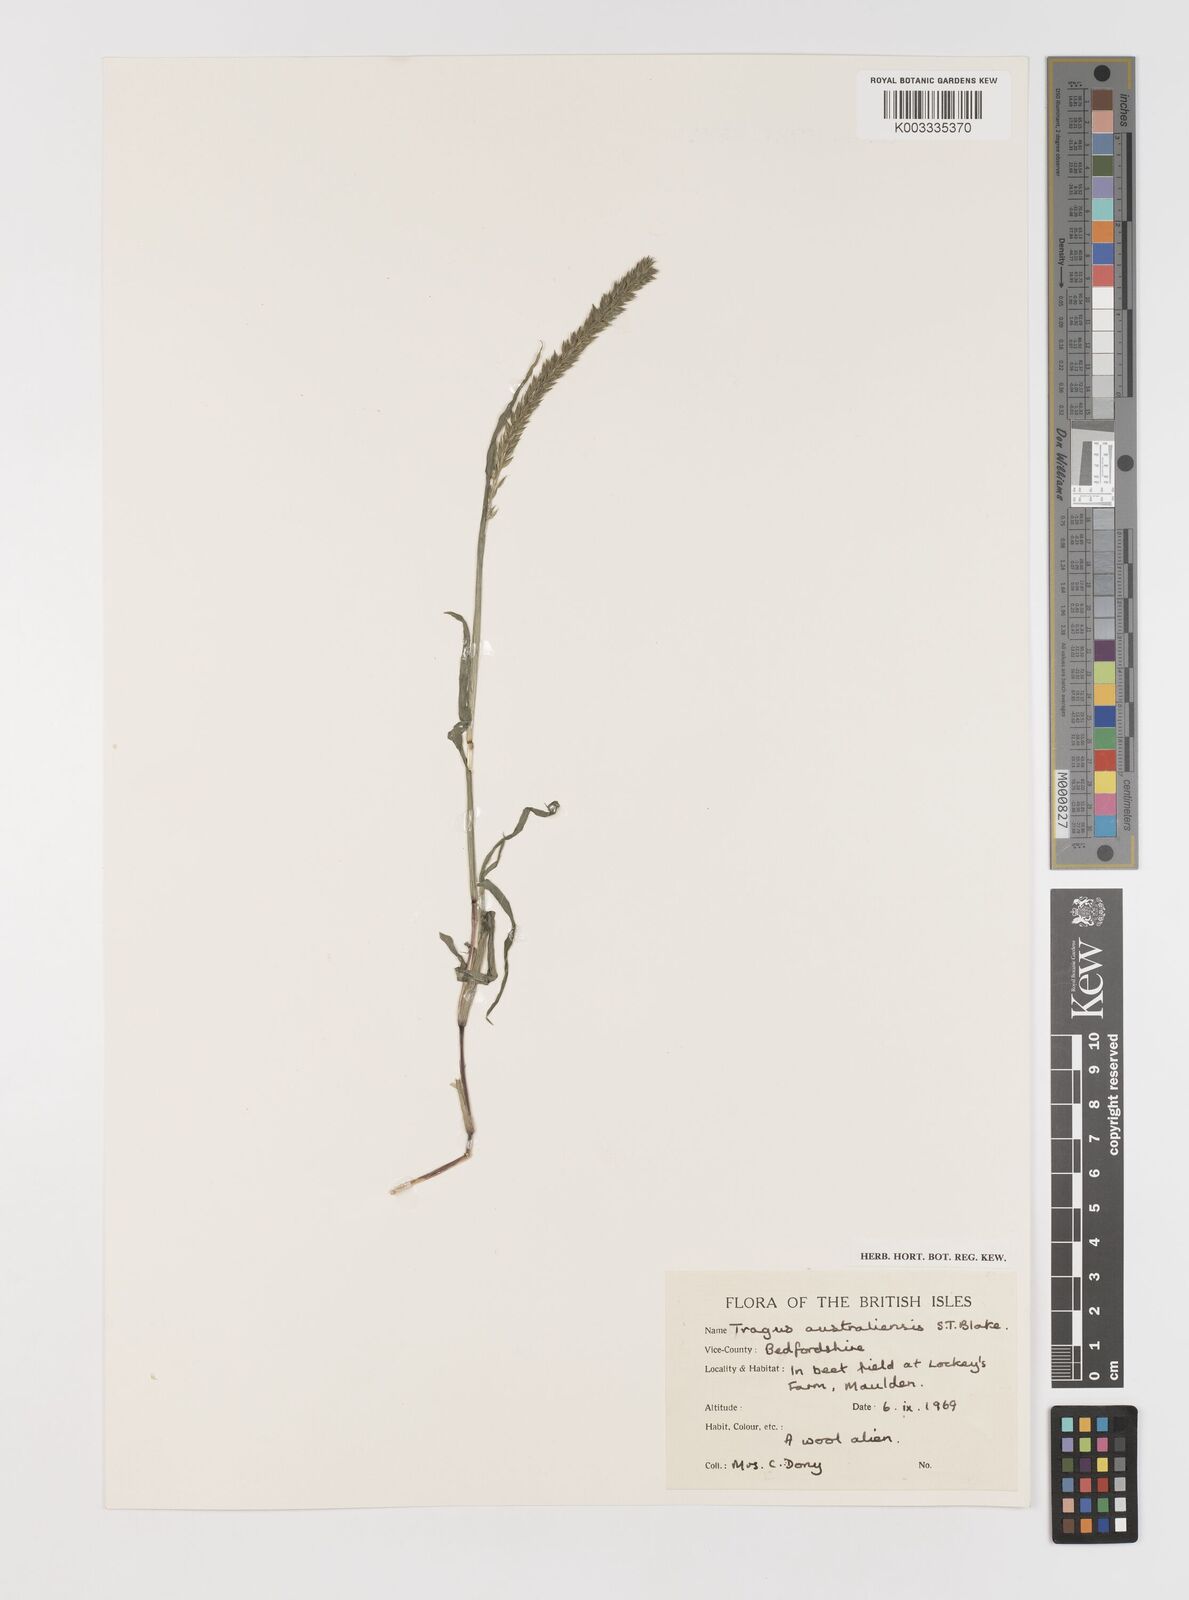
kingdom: Plantae
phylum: Tracheophyta
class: Liliopsida
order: Poales
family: Poaceae
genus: Tragus
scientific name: Tragus australianus
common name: Australian bur-grass
